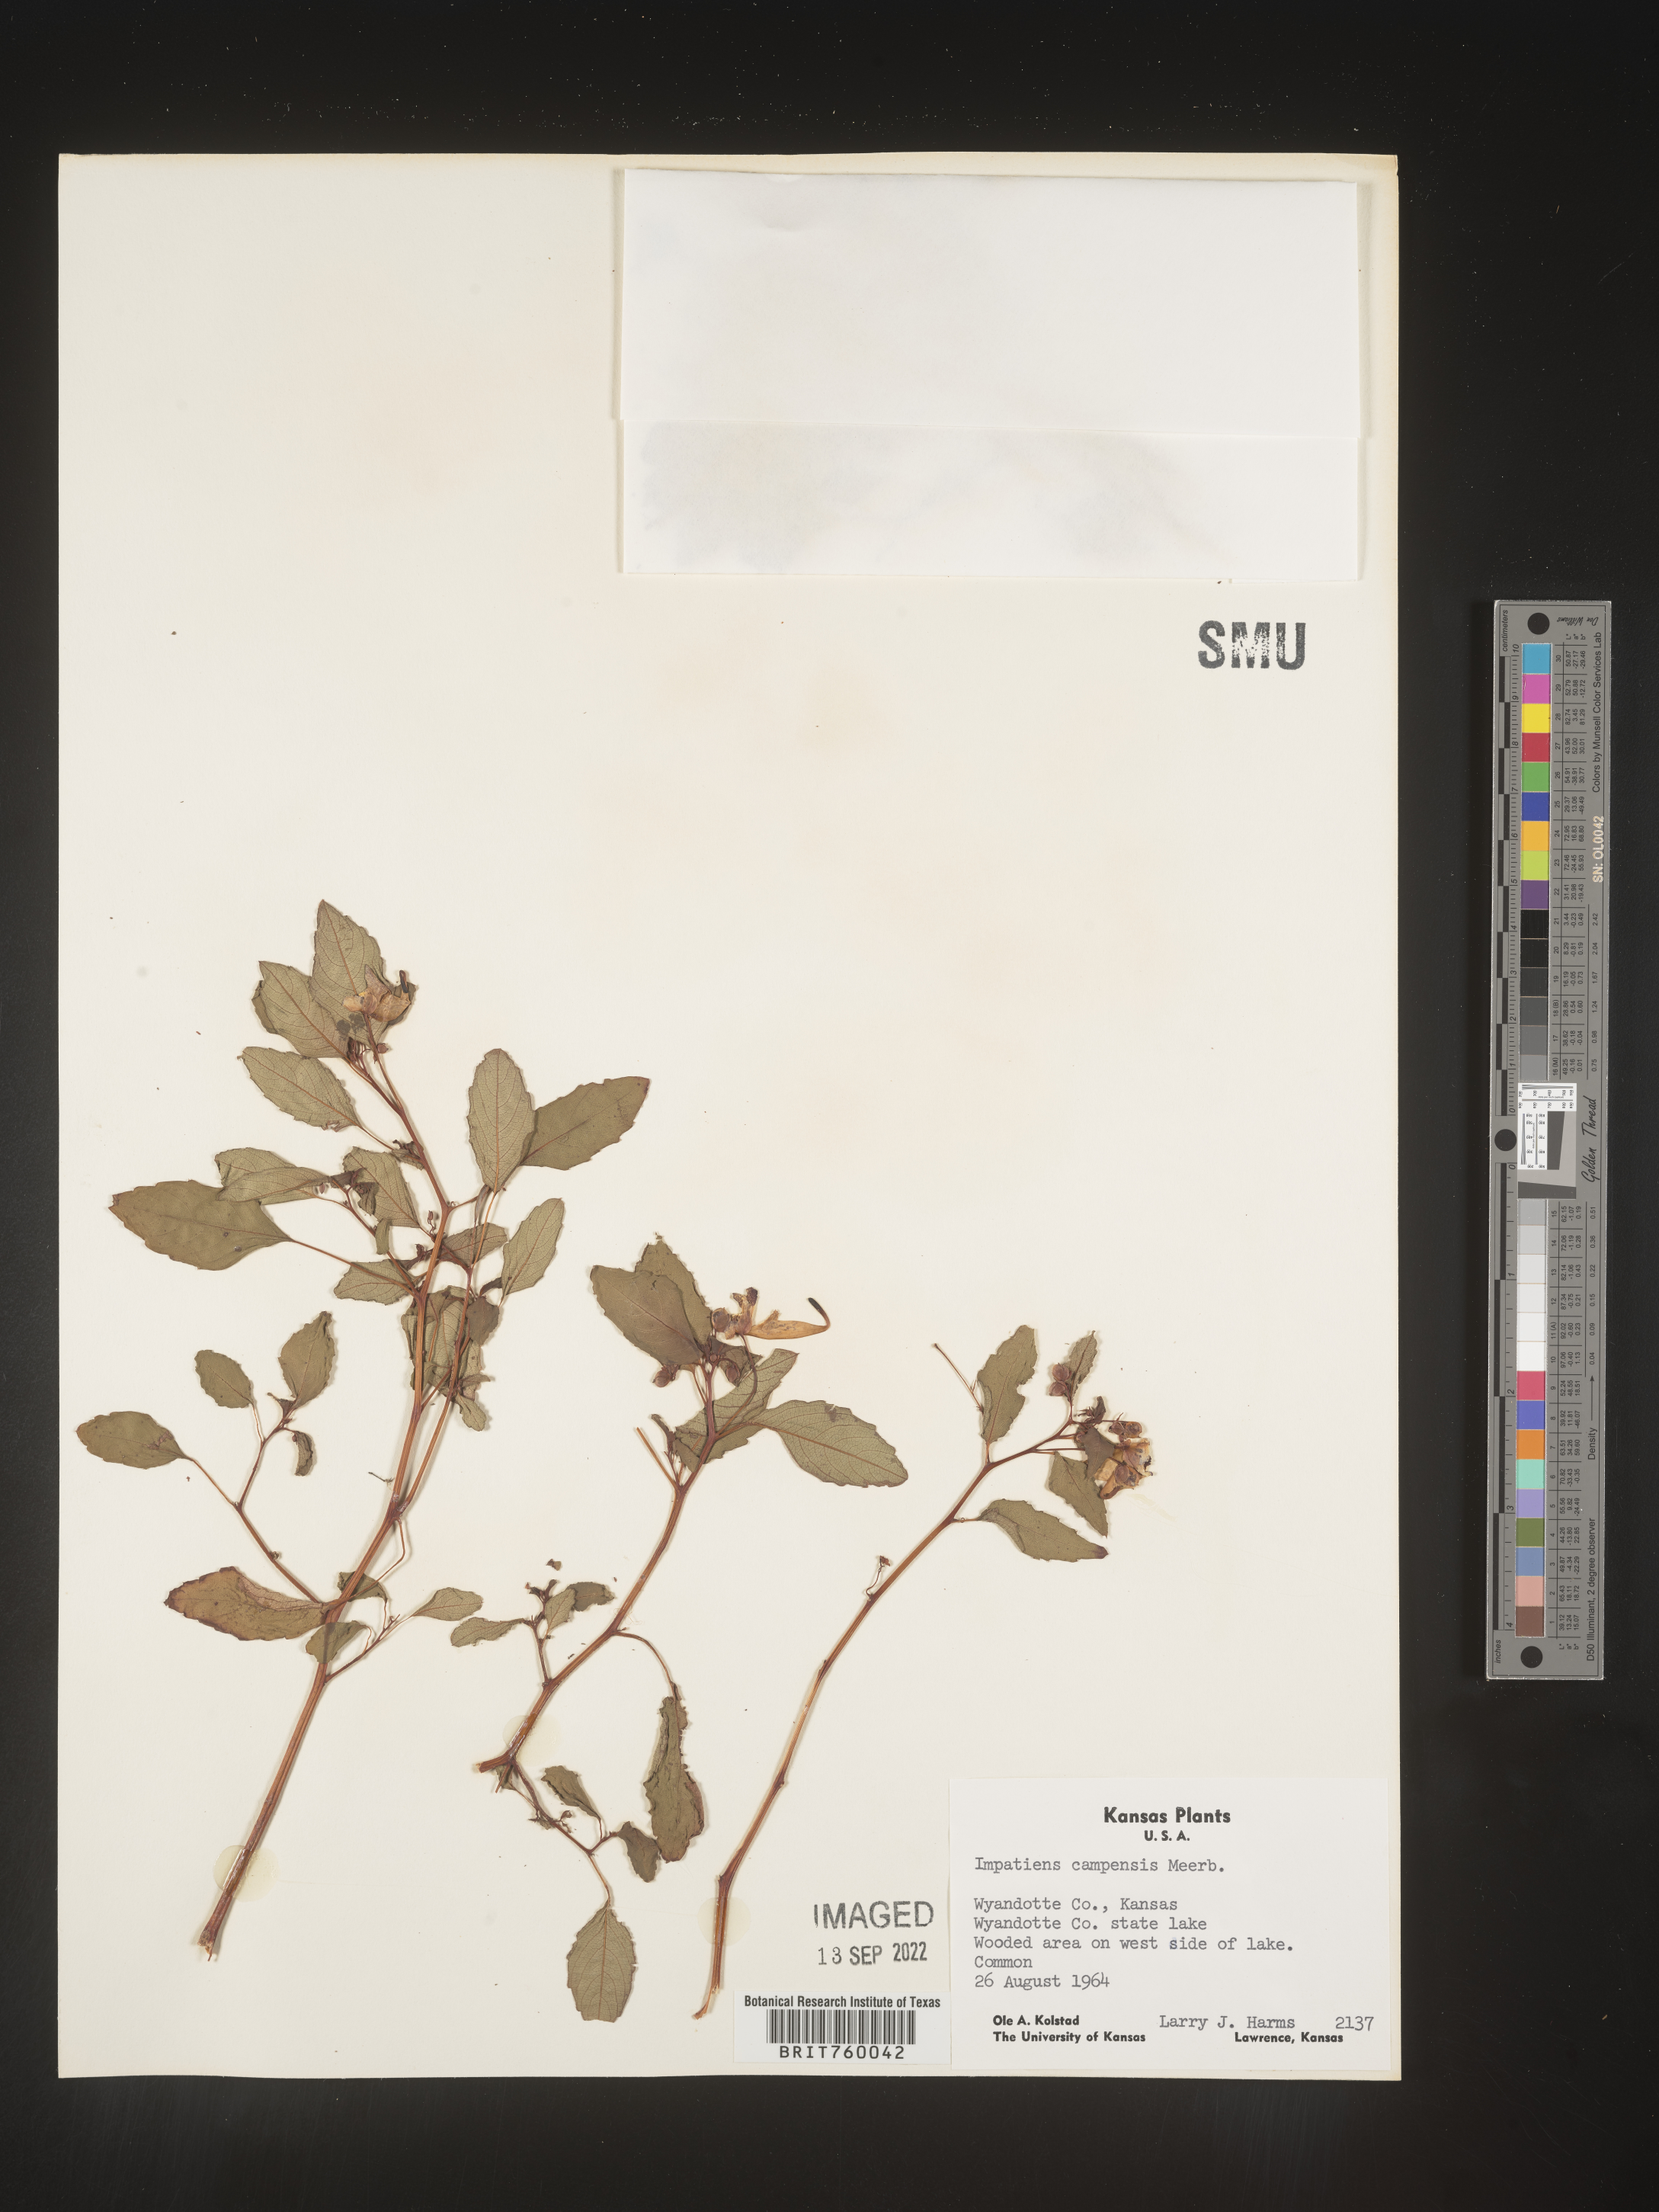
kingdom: Plantae
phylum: Tracheophyta
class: Magnoliopsida
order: Ericales
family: Balsaminaceae
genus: Impatiens
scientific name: Impatiens capensis
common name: Orange balsam
